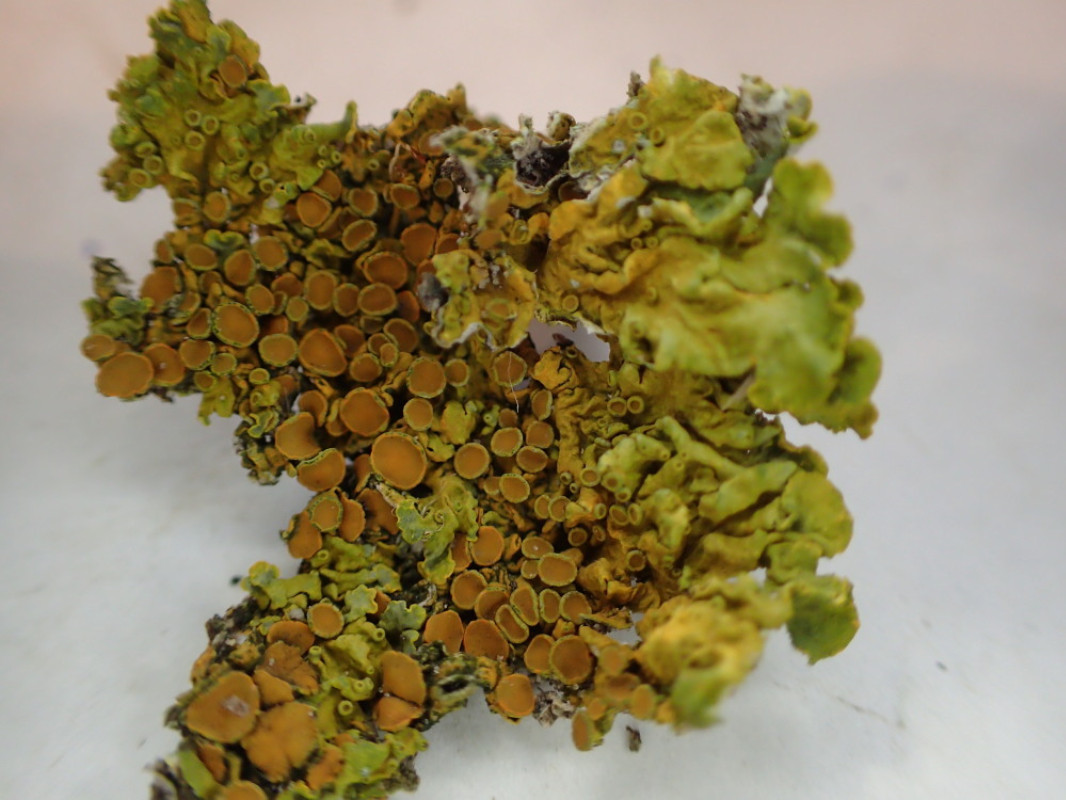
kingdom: Fungi
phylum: Ascomycota
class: Lecanoromycetes
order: Teloschistales
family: Teloschistaceae
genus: Xanthoria
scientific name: Xanthoria parietina
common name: almindelig væggelav
